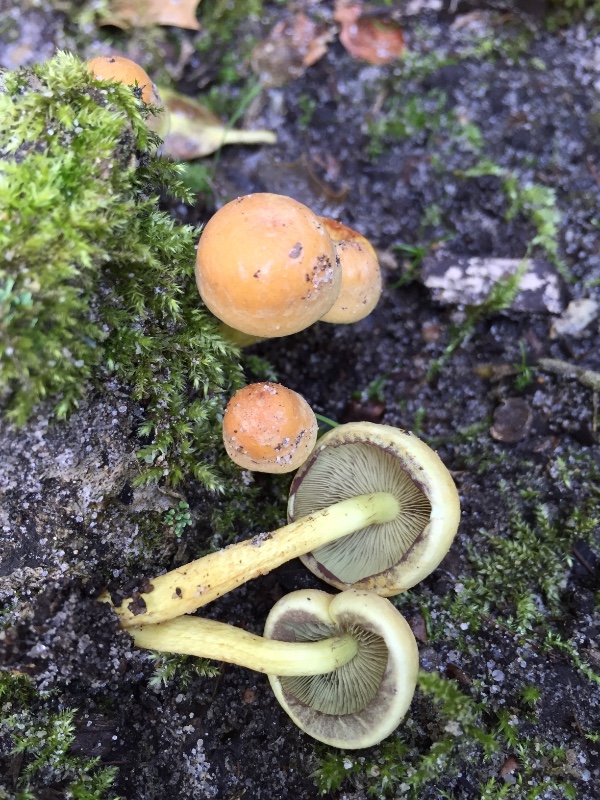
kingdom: Fungi
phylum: Basidiomycota
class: Agaricomycetes
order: Agaricales
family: Strophariaceae
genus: Hypholoma
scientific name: Hypholoma fasciculare
